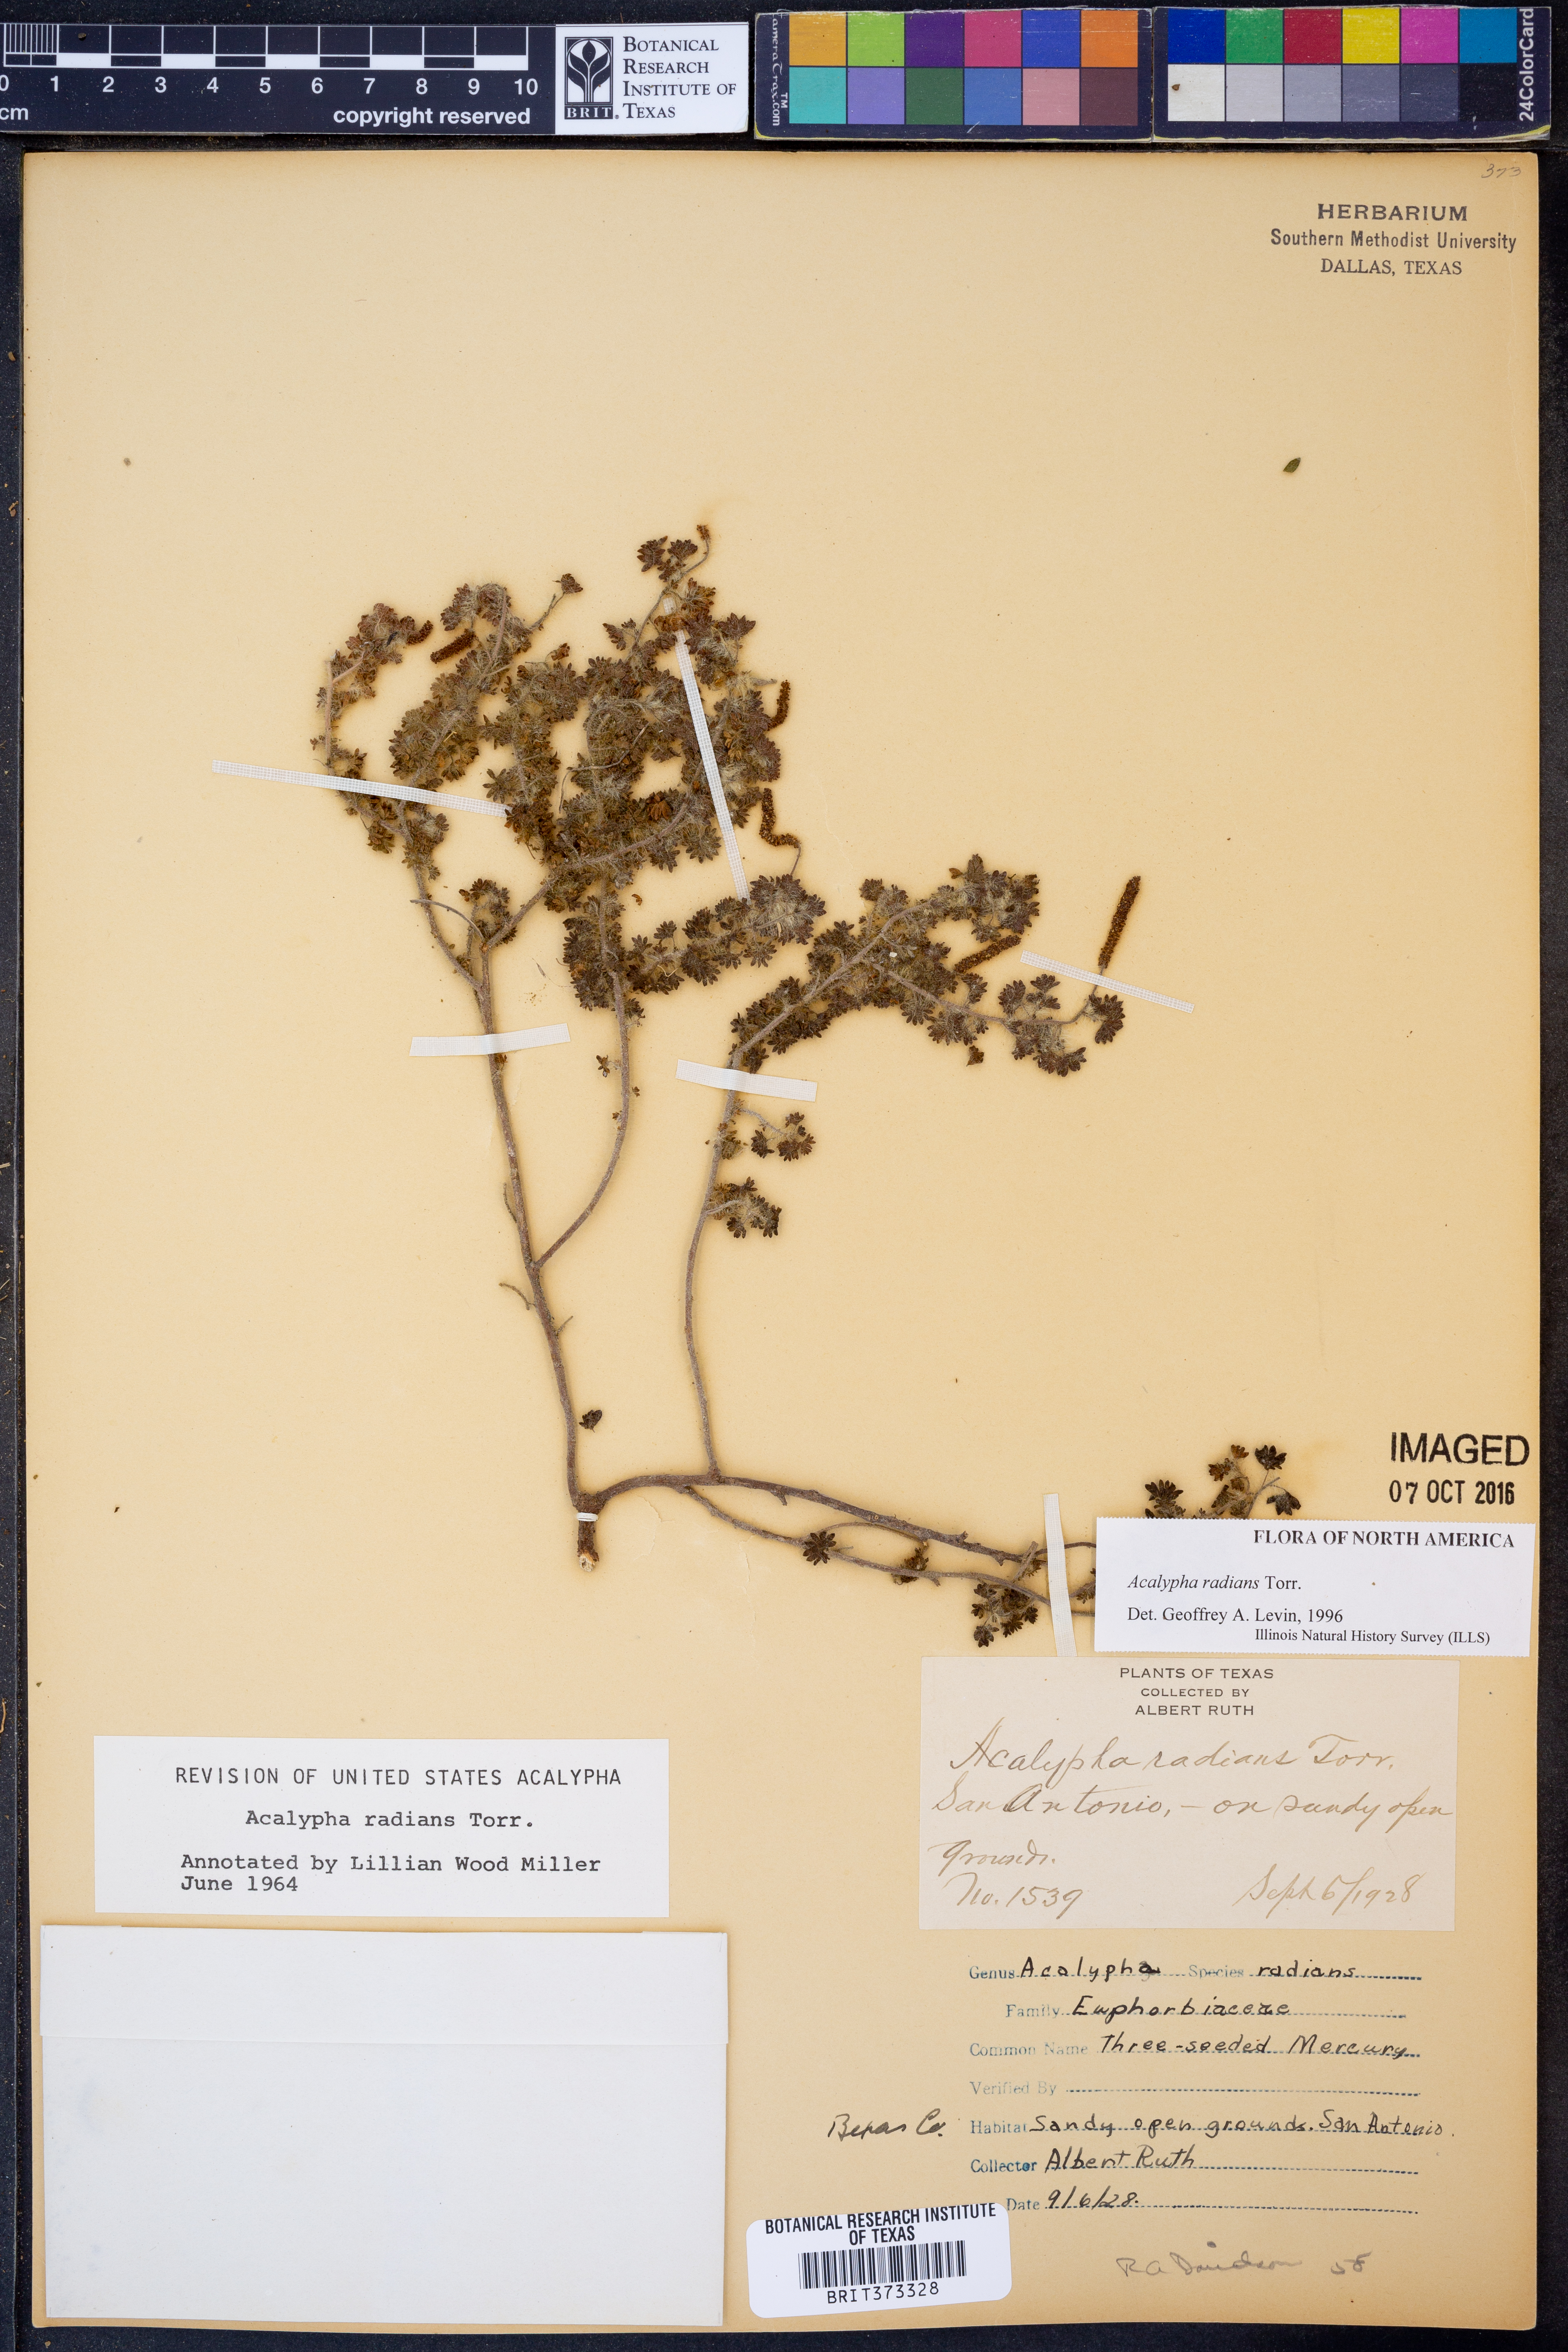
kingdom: Plantae
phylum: Tracheophyta
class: Magnoliopsida
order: Malpighiales
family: Euphorbiaceae
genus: Acalypha
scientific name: Acalypha radians
